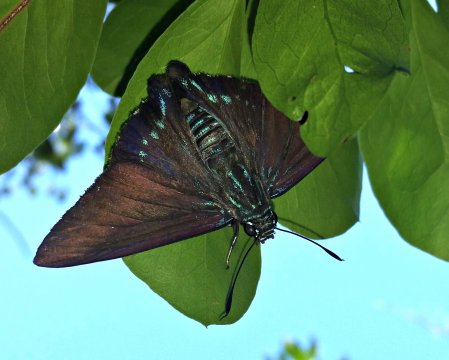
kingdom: Animalia
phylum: Arthropoda
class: Insecta
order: Lepidoptera
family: Hesperiidae
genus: Phocides
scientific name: Phocides pigmalion
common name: Mangrove Skipper
